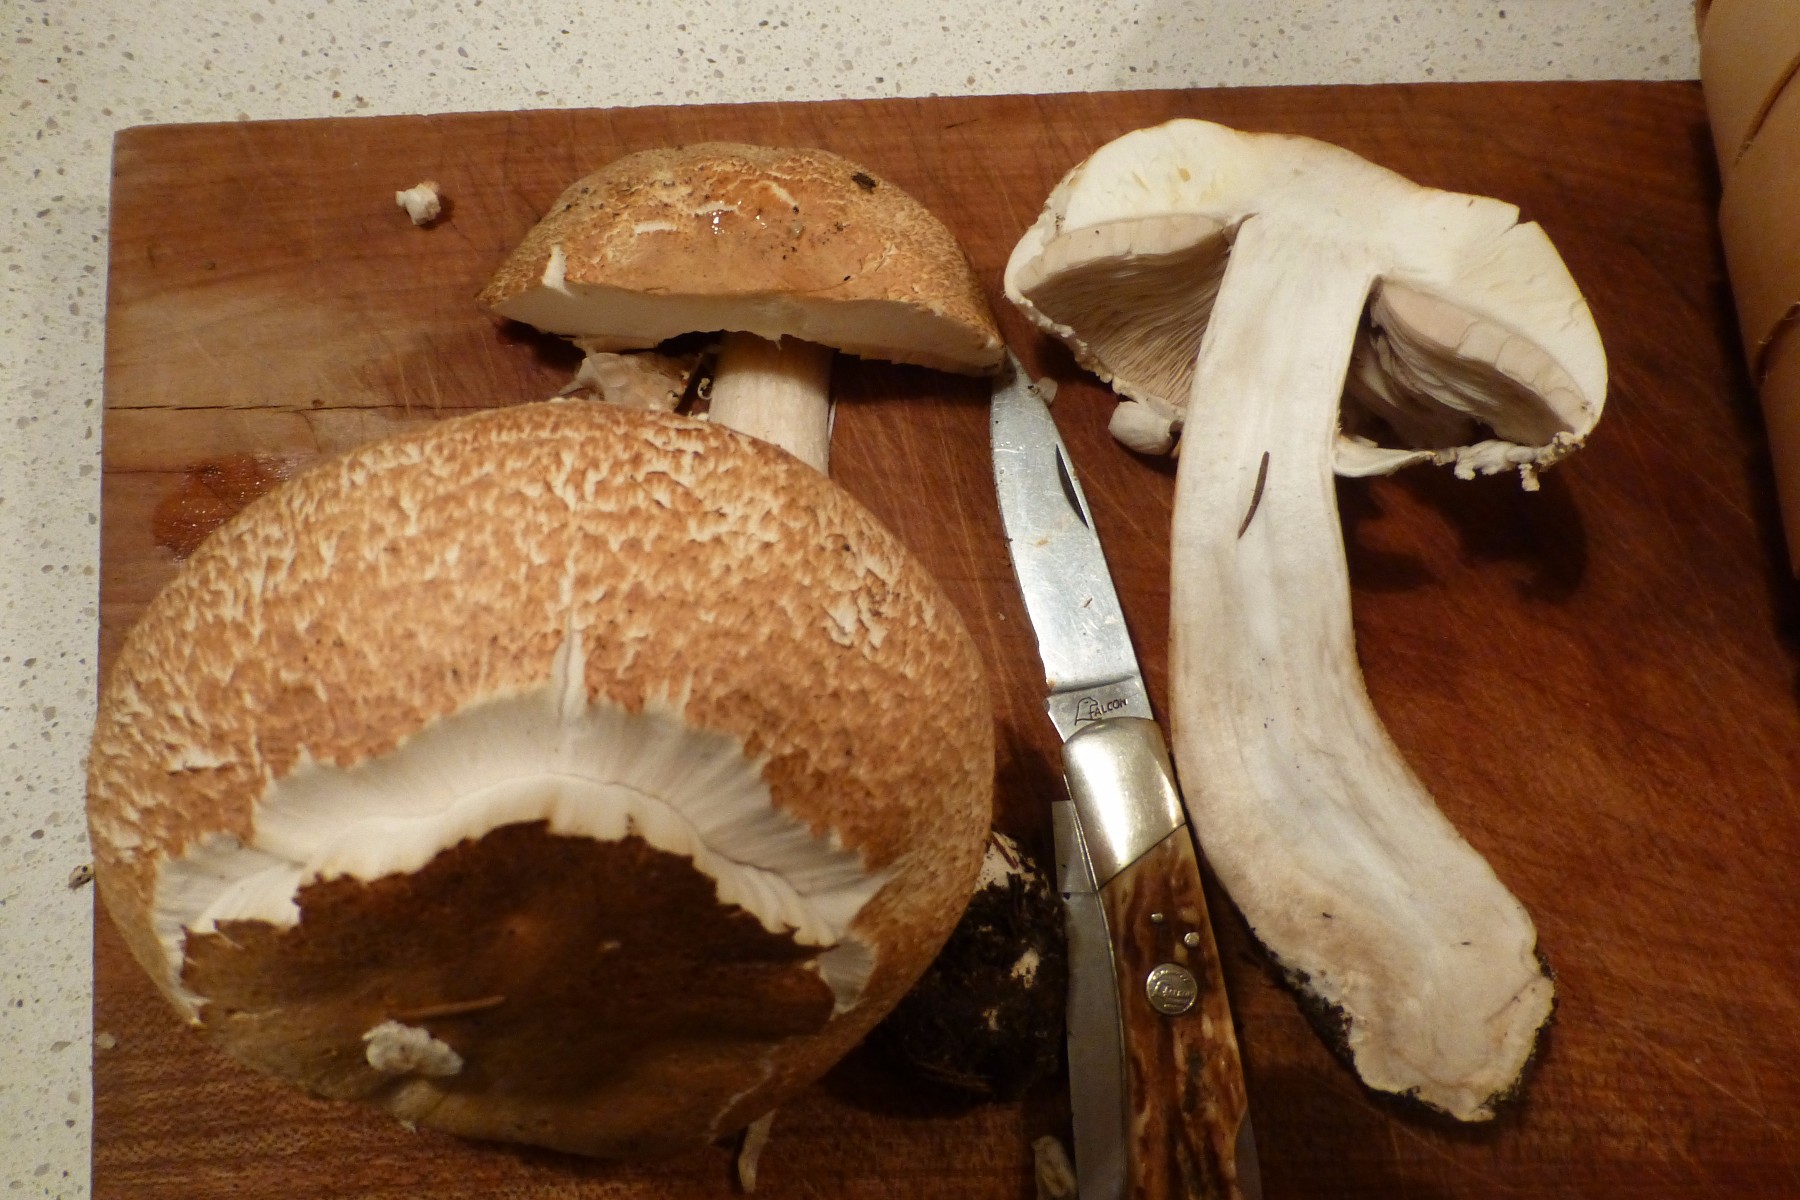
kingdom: Fungi
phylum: Basidiomycota
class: Agaricomycetes
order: Agaricales
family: Agaricaceae
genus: Agaricus
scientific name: Agaricus augustus
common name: prægtig champignon
